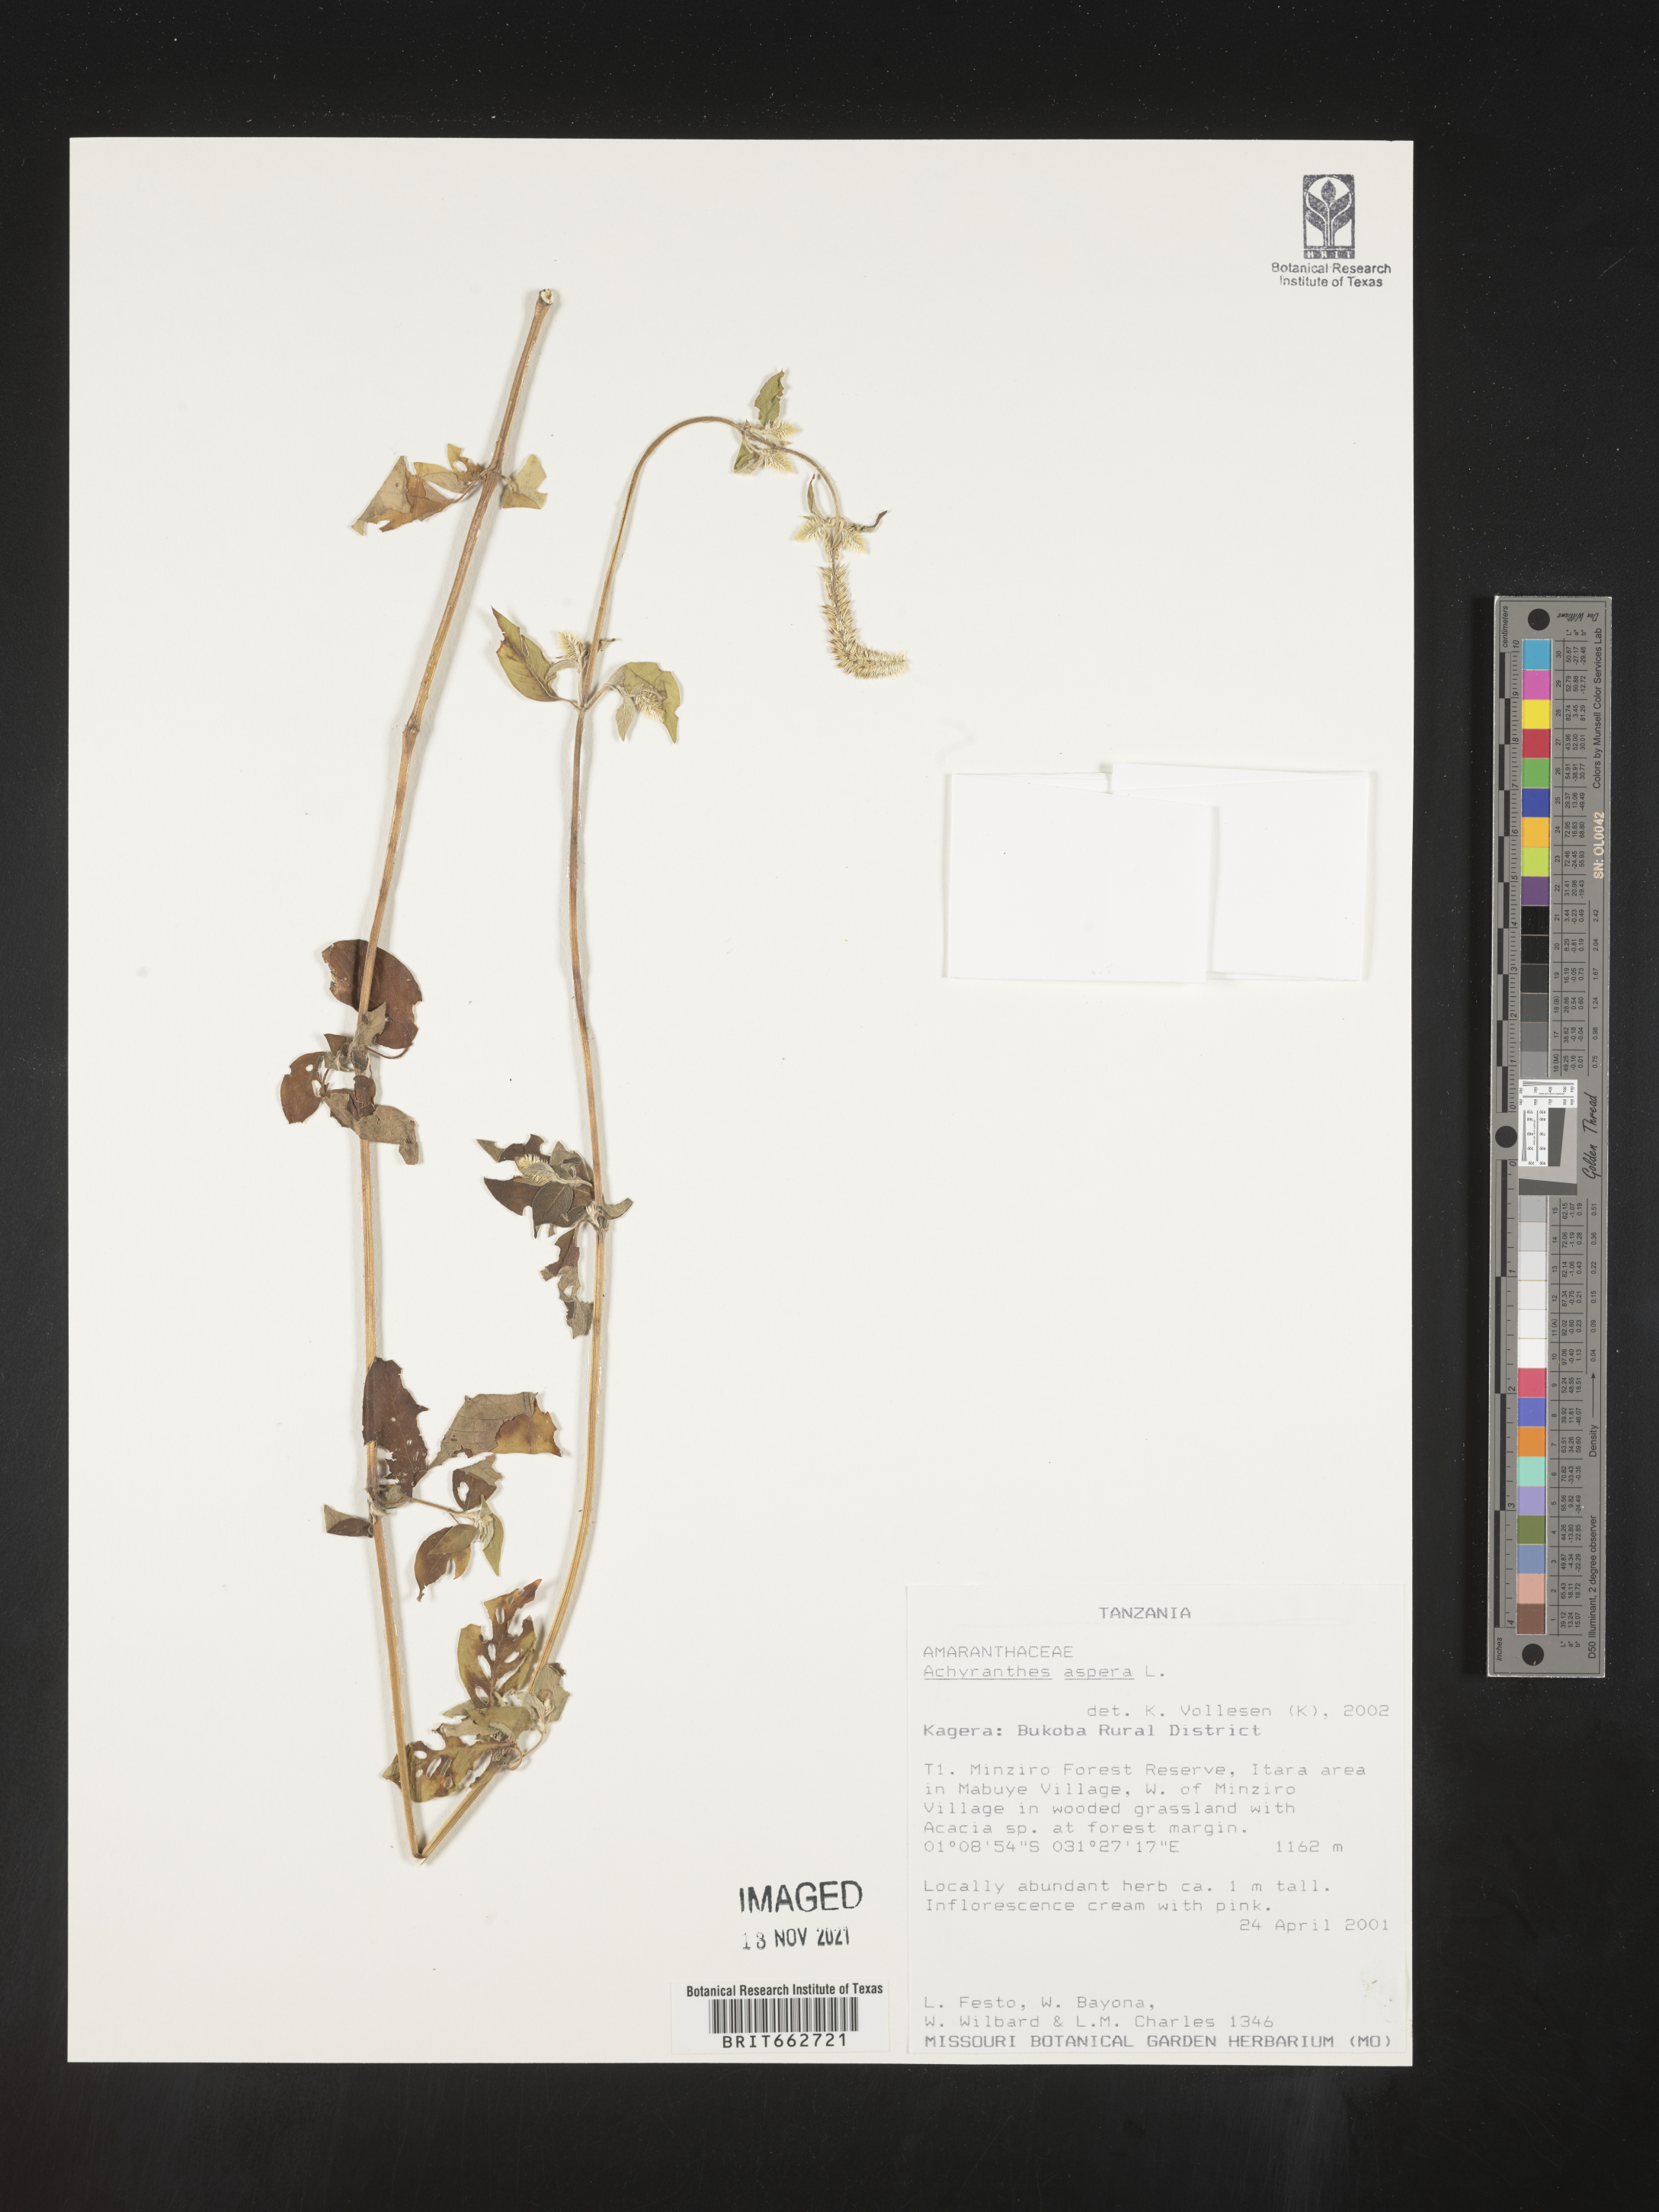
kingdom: Plantae
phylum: Tracheophyta
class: Magnoliopsida
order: Caryophyllales
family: Amaranthaceae
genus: Achyranthes
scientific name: Achyranthes
